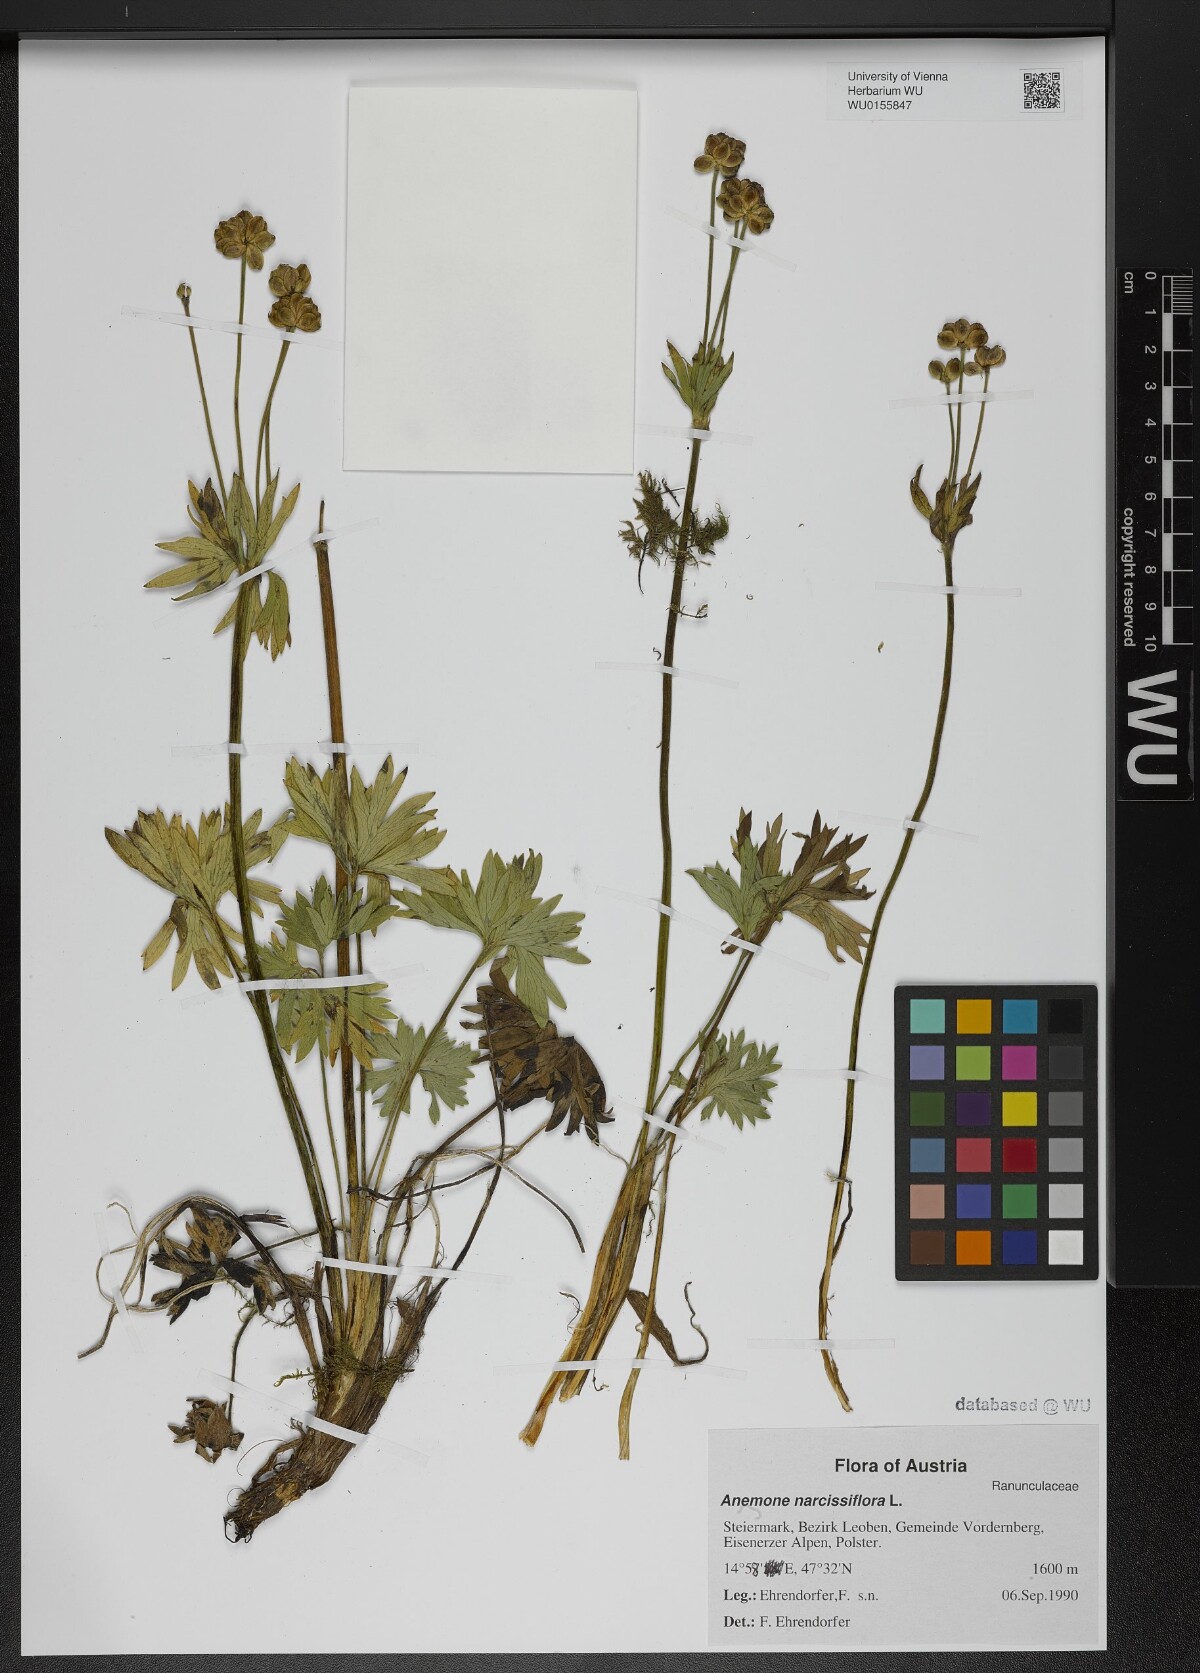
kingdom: Plantae
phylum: Tracheophyta
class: Magnoliopsida
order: Ranunculales
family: Ranunculaceae
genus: Anemonastrum
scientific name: Anemonastrum narcissiflorum
